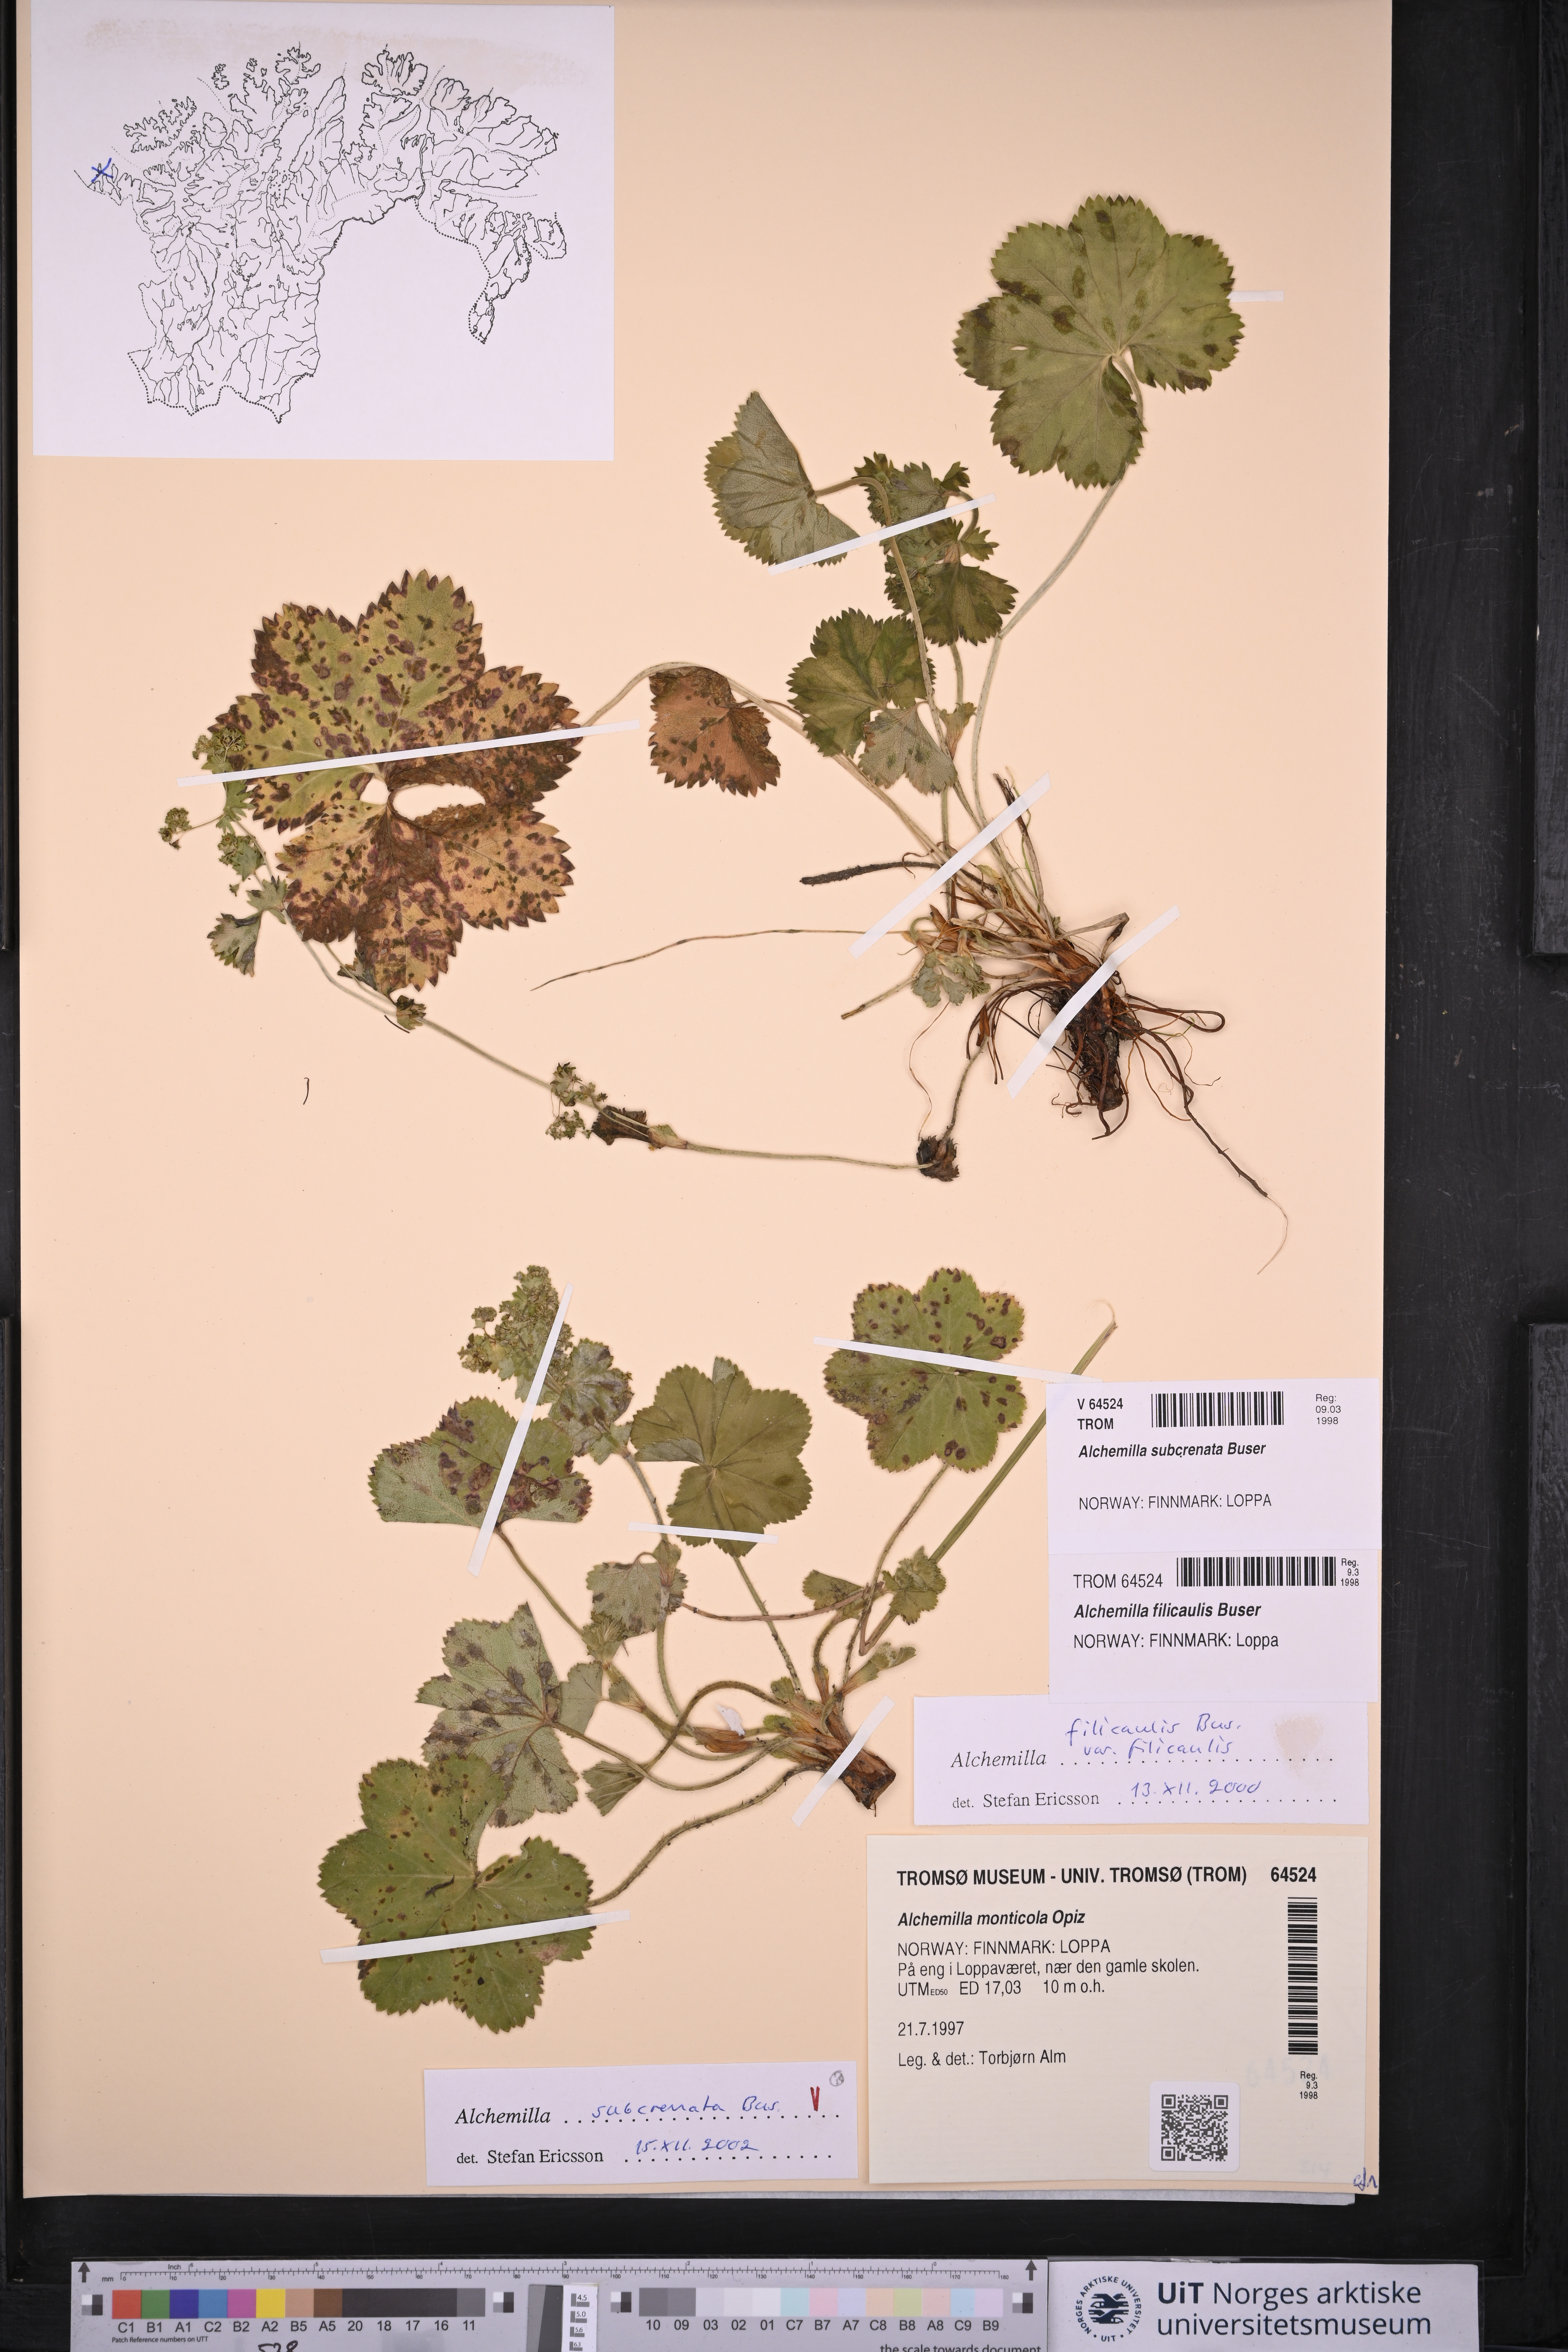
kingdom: Plantae
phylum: Tracheophyta
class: Magnoliopsida
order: Rosales
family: Rosaceae
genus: Alchemilla
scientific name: Alchemilla subcrenata
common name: Broadtooth lady's mantle
